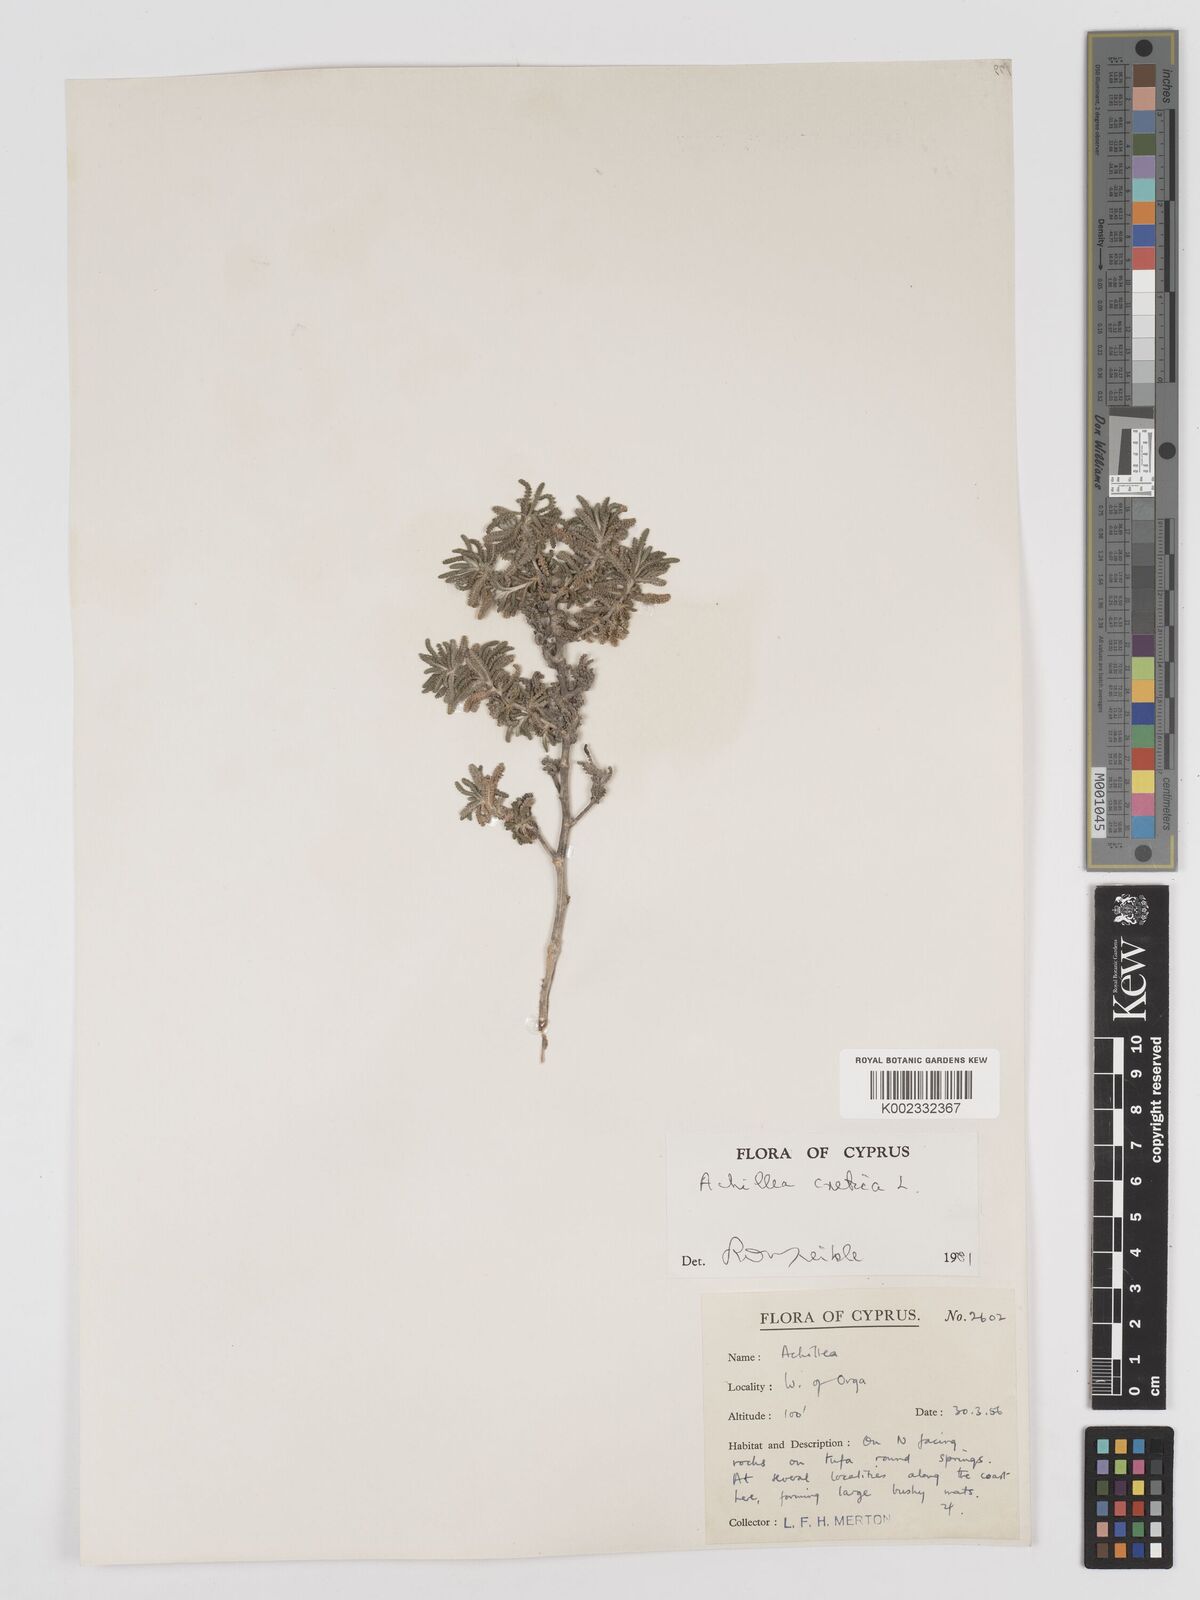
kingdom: Plantae
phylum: Tracheophyta
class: Magnoliopsida
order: Asterales
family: Asteraceae
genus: Achillea
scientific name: Achillea cretica
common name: Chamomile-leaved lavender-cotton
